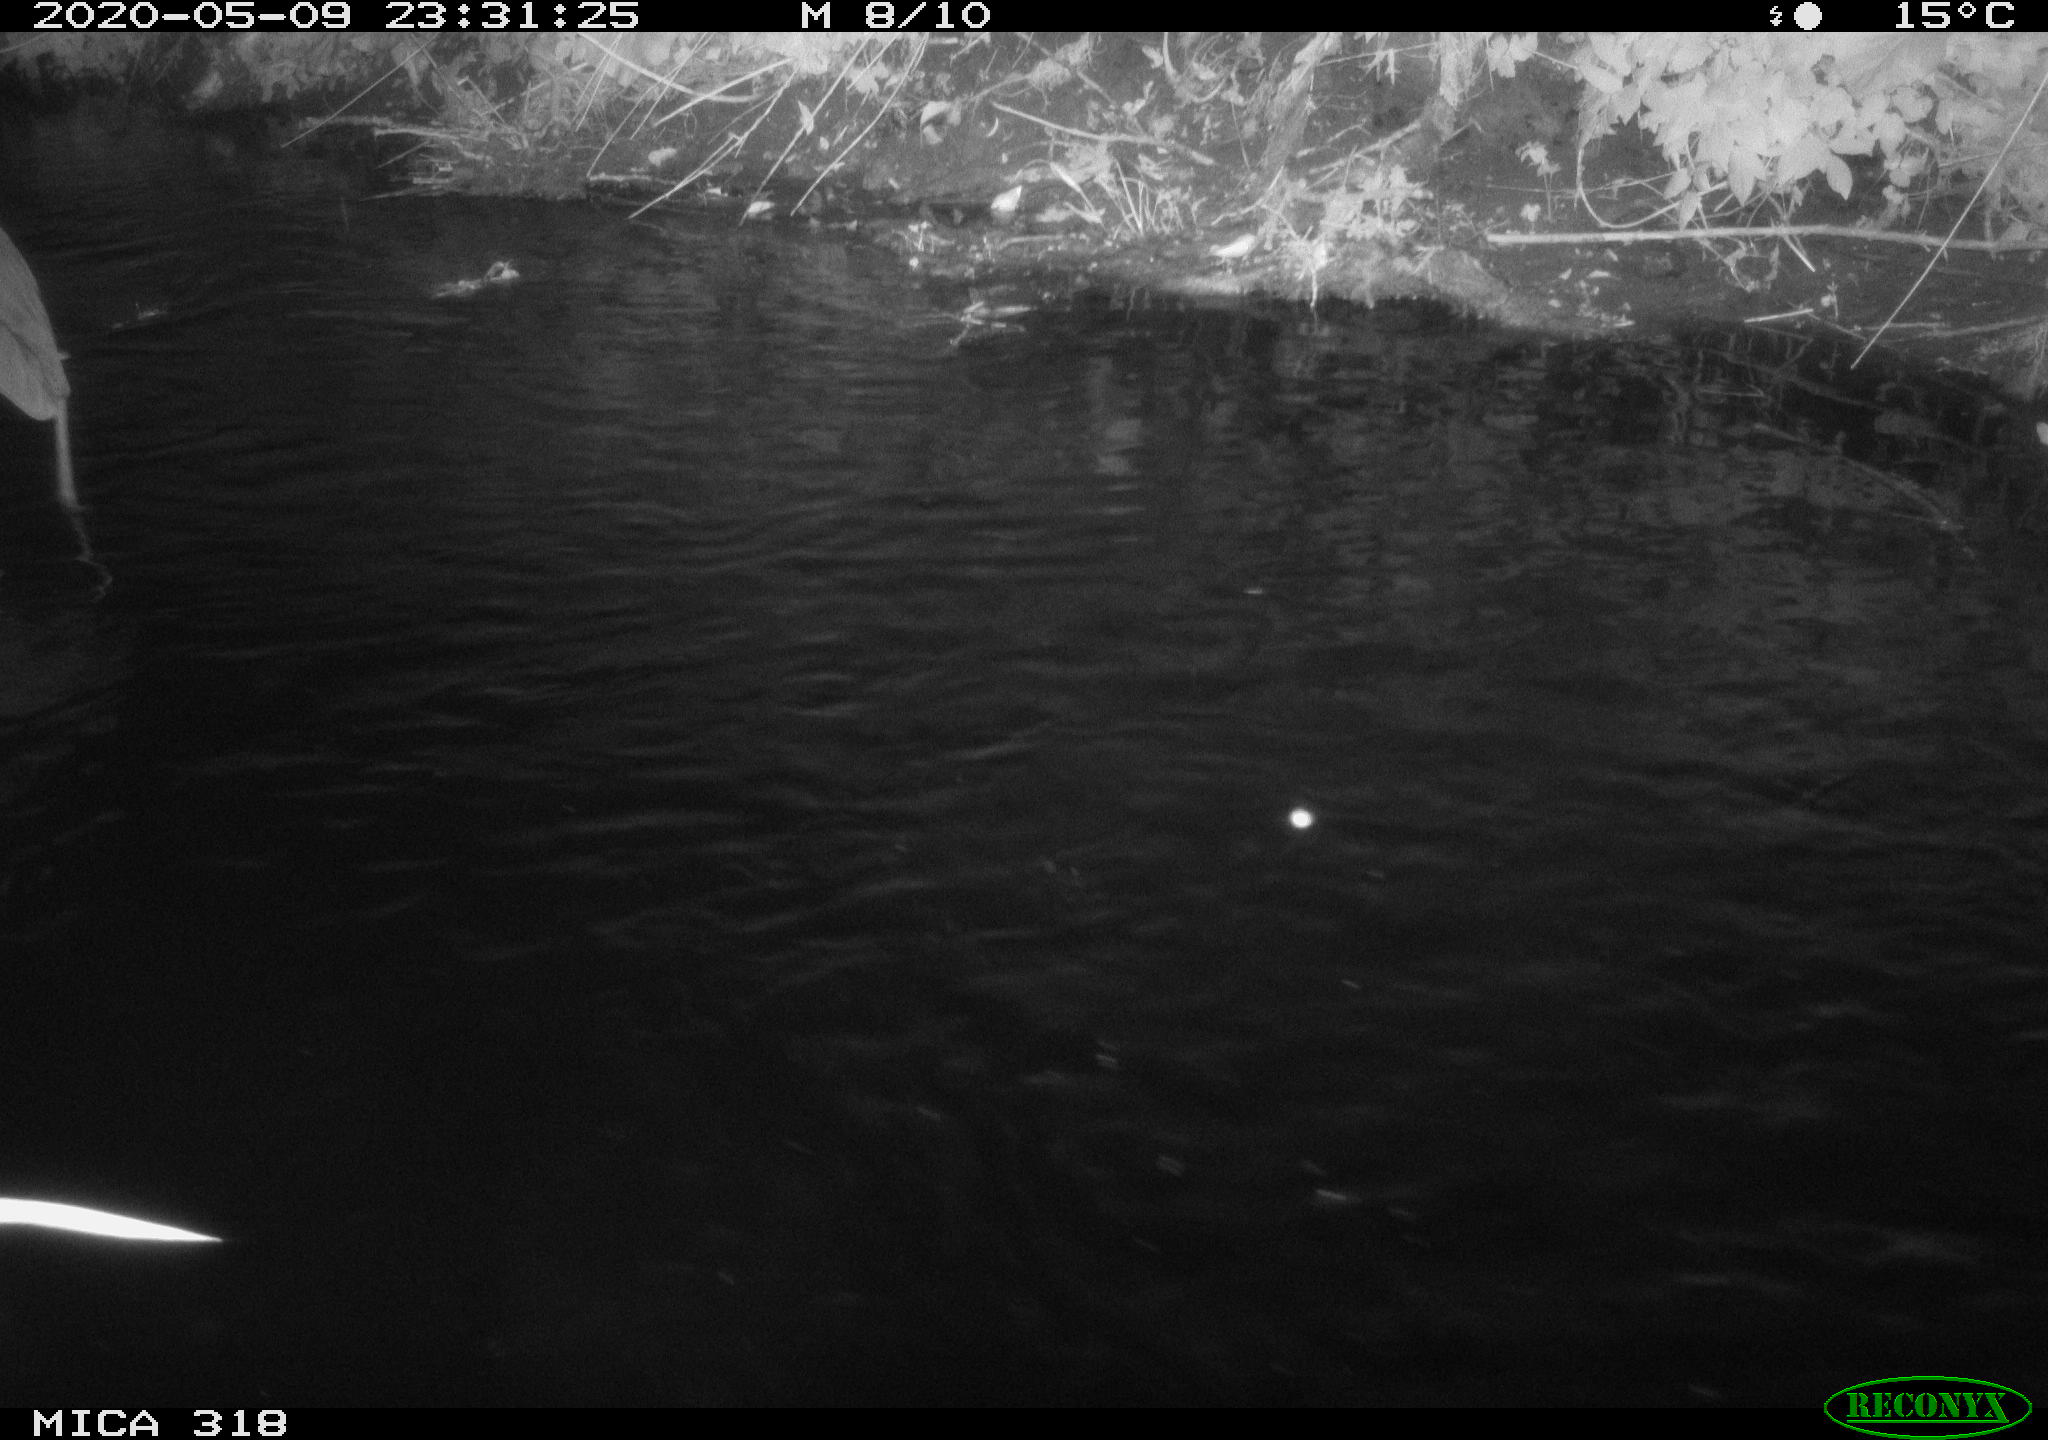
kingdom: Animalia
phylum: Chordata
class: Aves
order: Pelecaniformes
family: Ardeidae
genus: Ardea
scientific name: Ardea cinerea
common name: Grey heron
